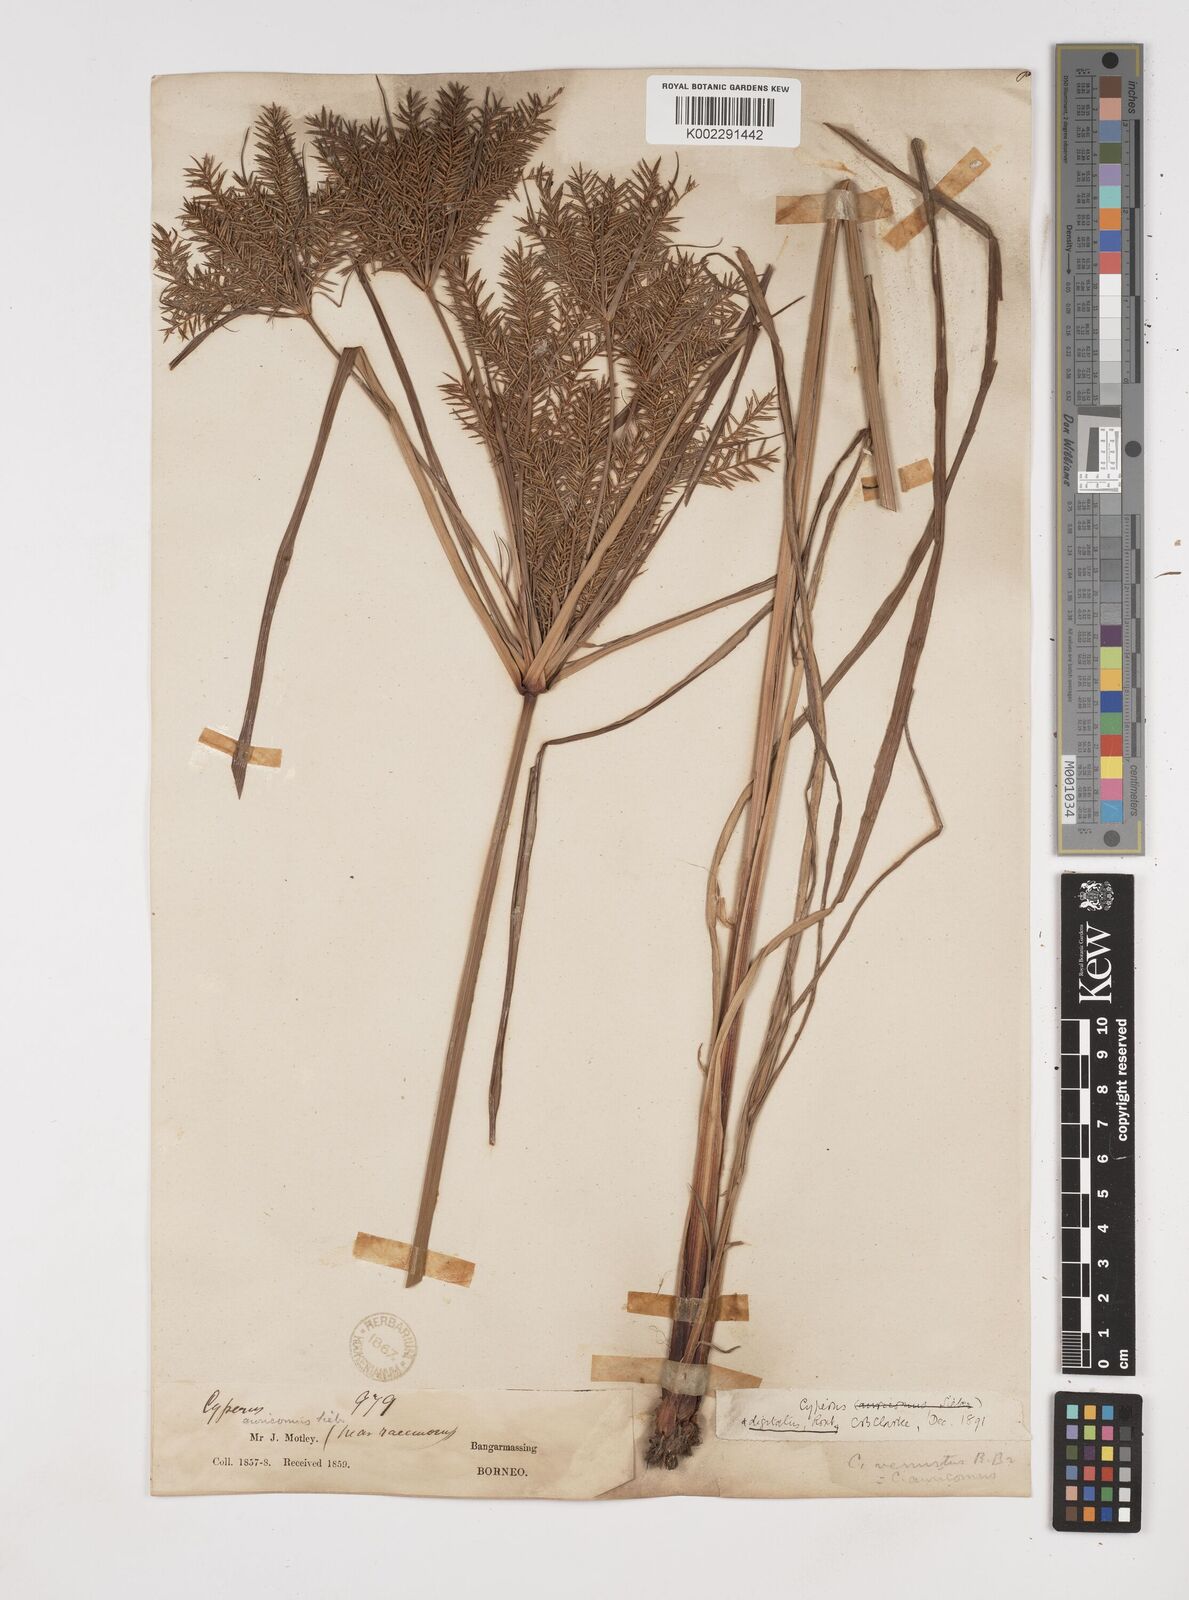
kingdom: Plantae
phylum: Tracheophyta
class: Liliopsida
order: Poales
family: Cyperaceae
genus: Cyperus
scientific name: Cyperus digitatus
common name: Finger flatsedge
